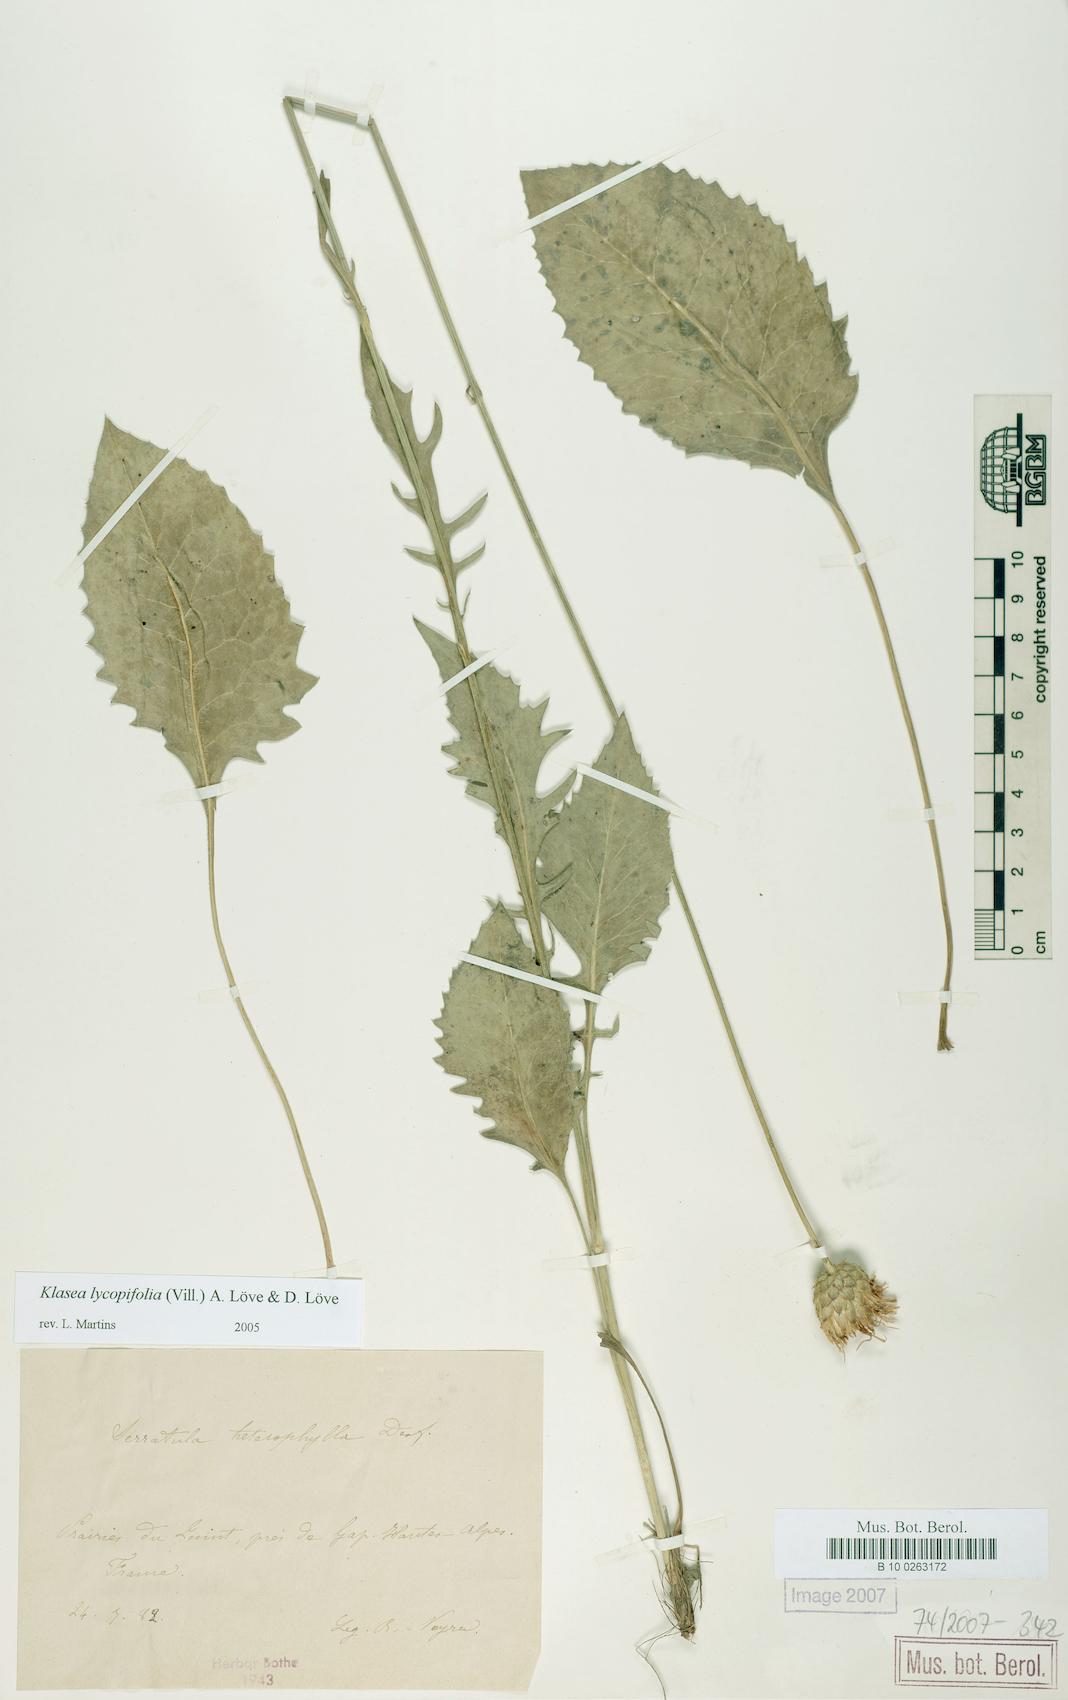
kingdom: Plantae
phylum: Tracheophyta
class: Magnoliopsida
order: Asterales
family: Asteraceae
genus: Klasea
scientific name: Klasea lycopifolia
